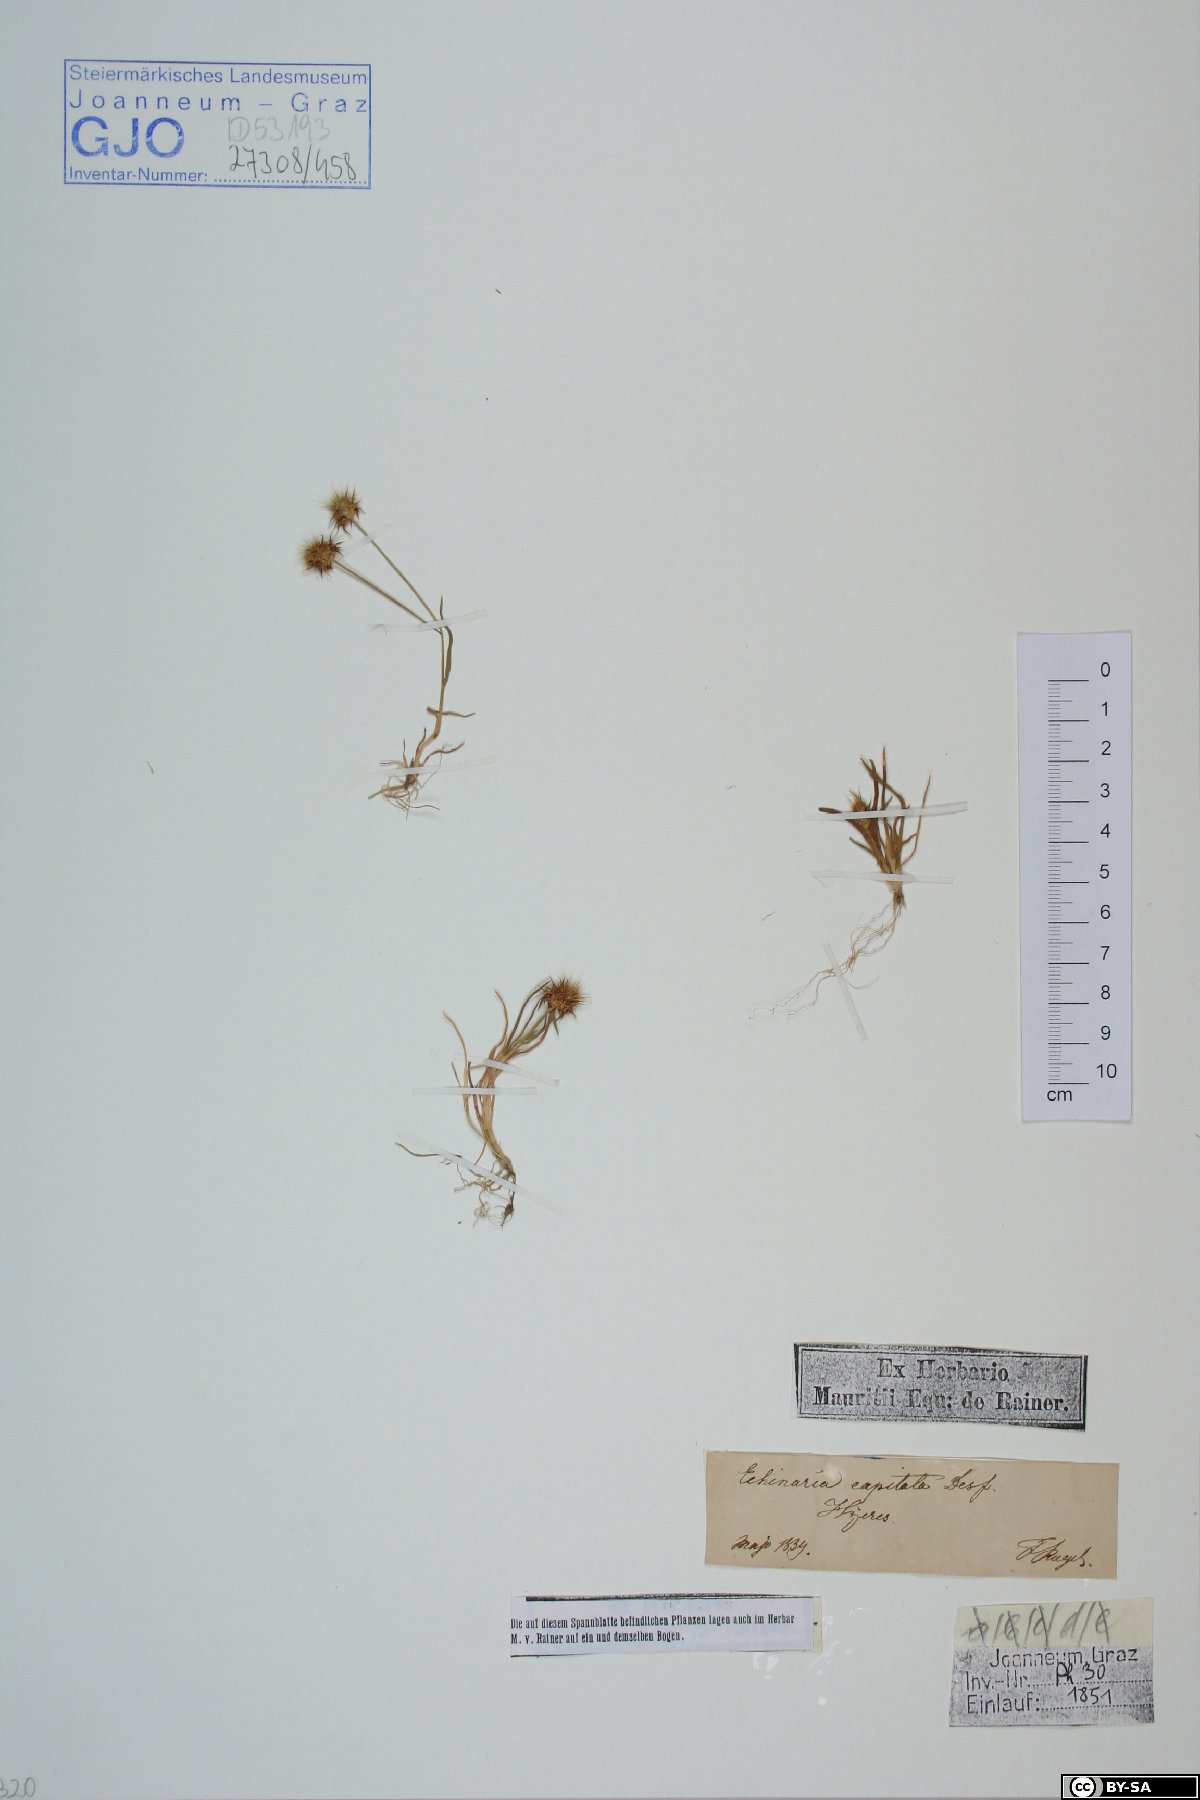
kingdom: Plantae
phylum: Tracheophyta
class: Liliopsida
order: Poales
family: Poaceae
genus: Echinaria
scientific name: Echinaria capitata
